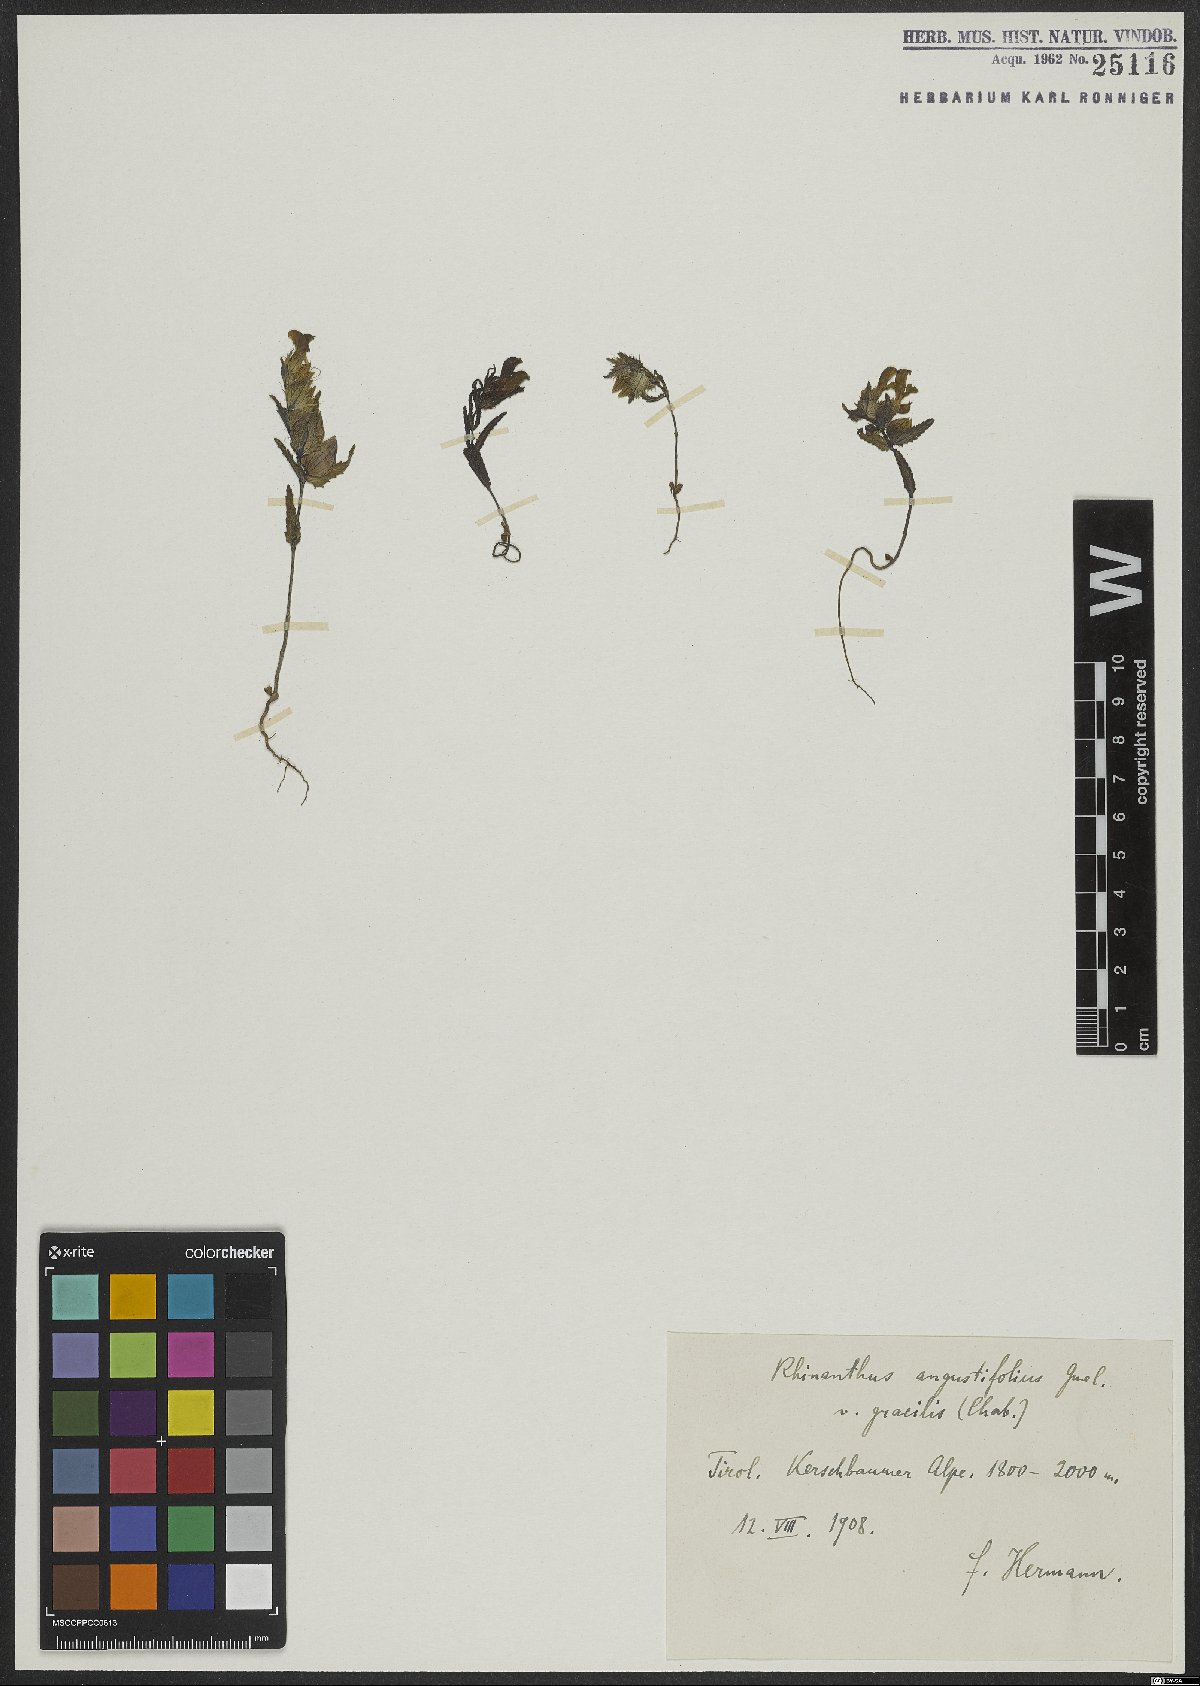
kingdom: Plantae
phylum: Tracheophyta
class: Magnoliopsida
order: Lamiales
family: Orobanchaceae
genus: Rhinanthus
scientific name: Rhinanthus glacialis
